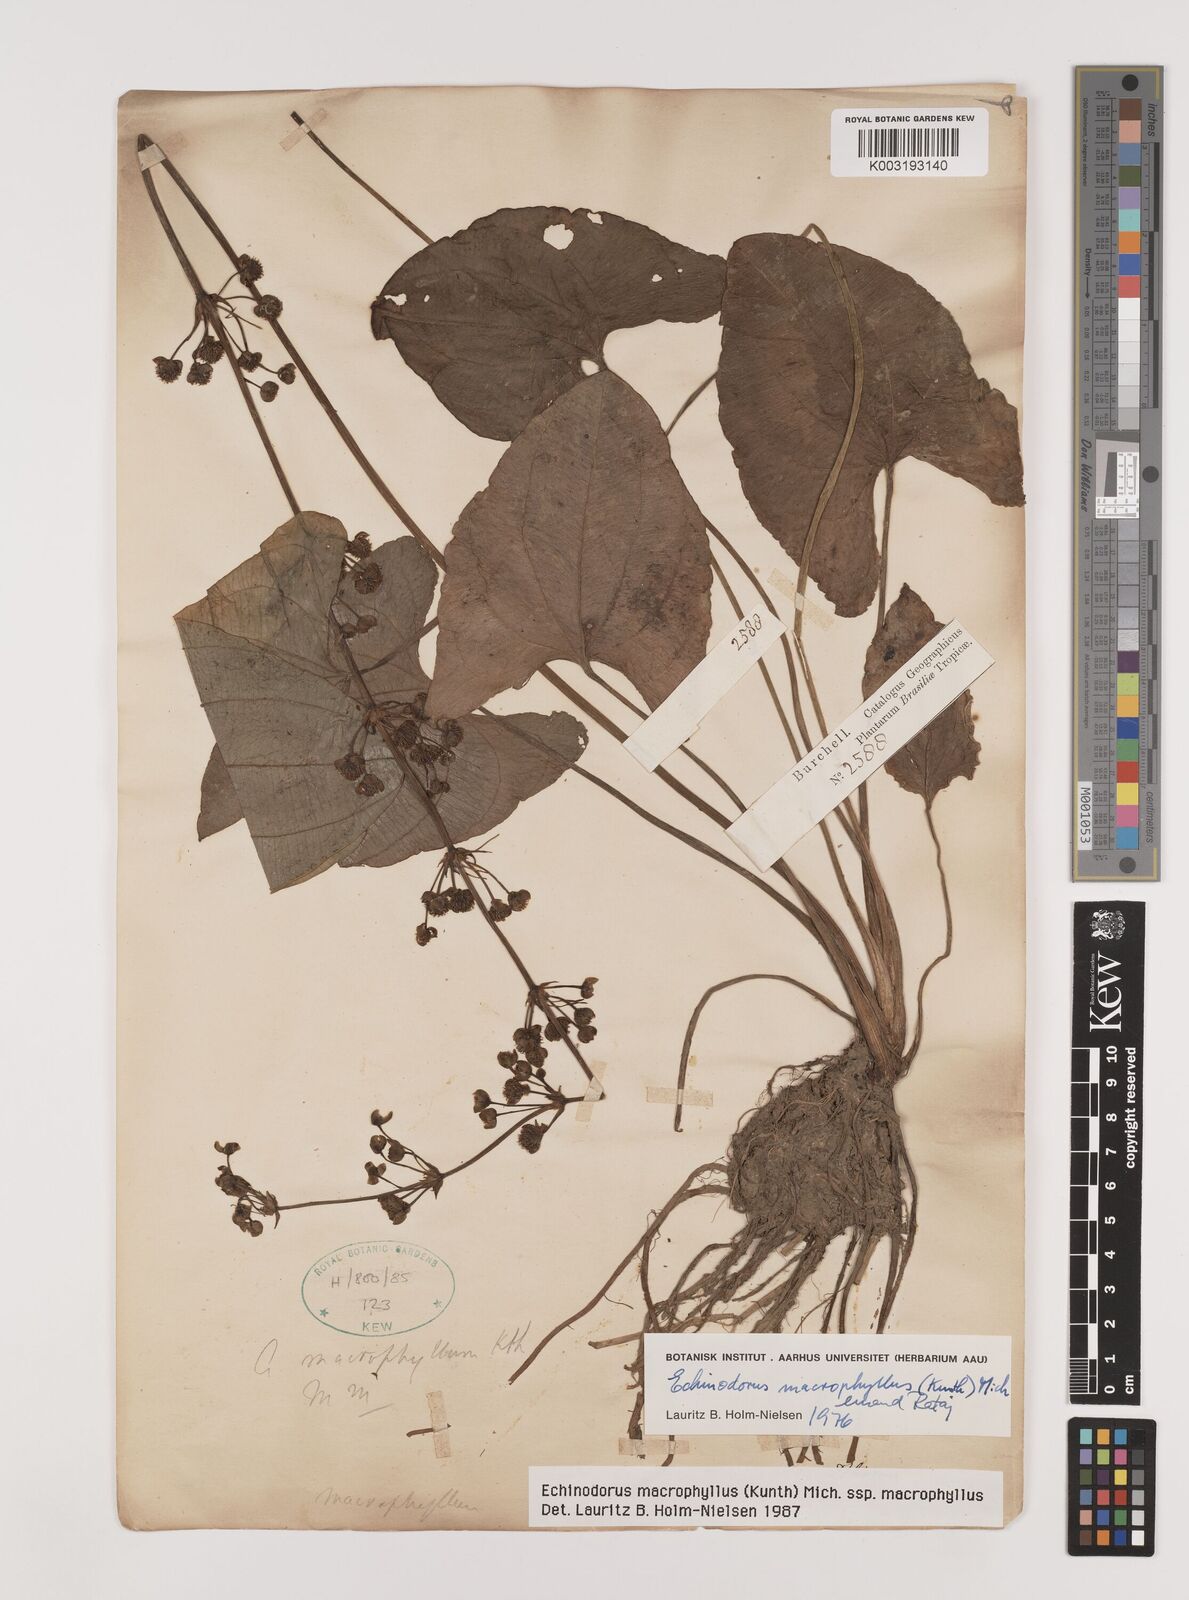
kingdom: Plantae
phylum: Tracheophyta
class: Liliopsida
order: Alismatales
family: Alismataceae
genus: Aquarius
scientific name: Aquarius macrophyllus
